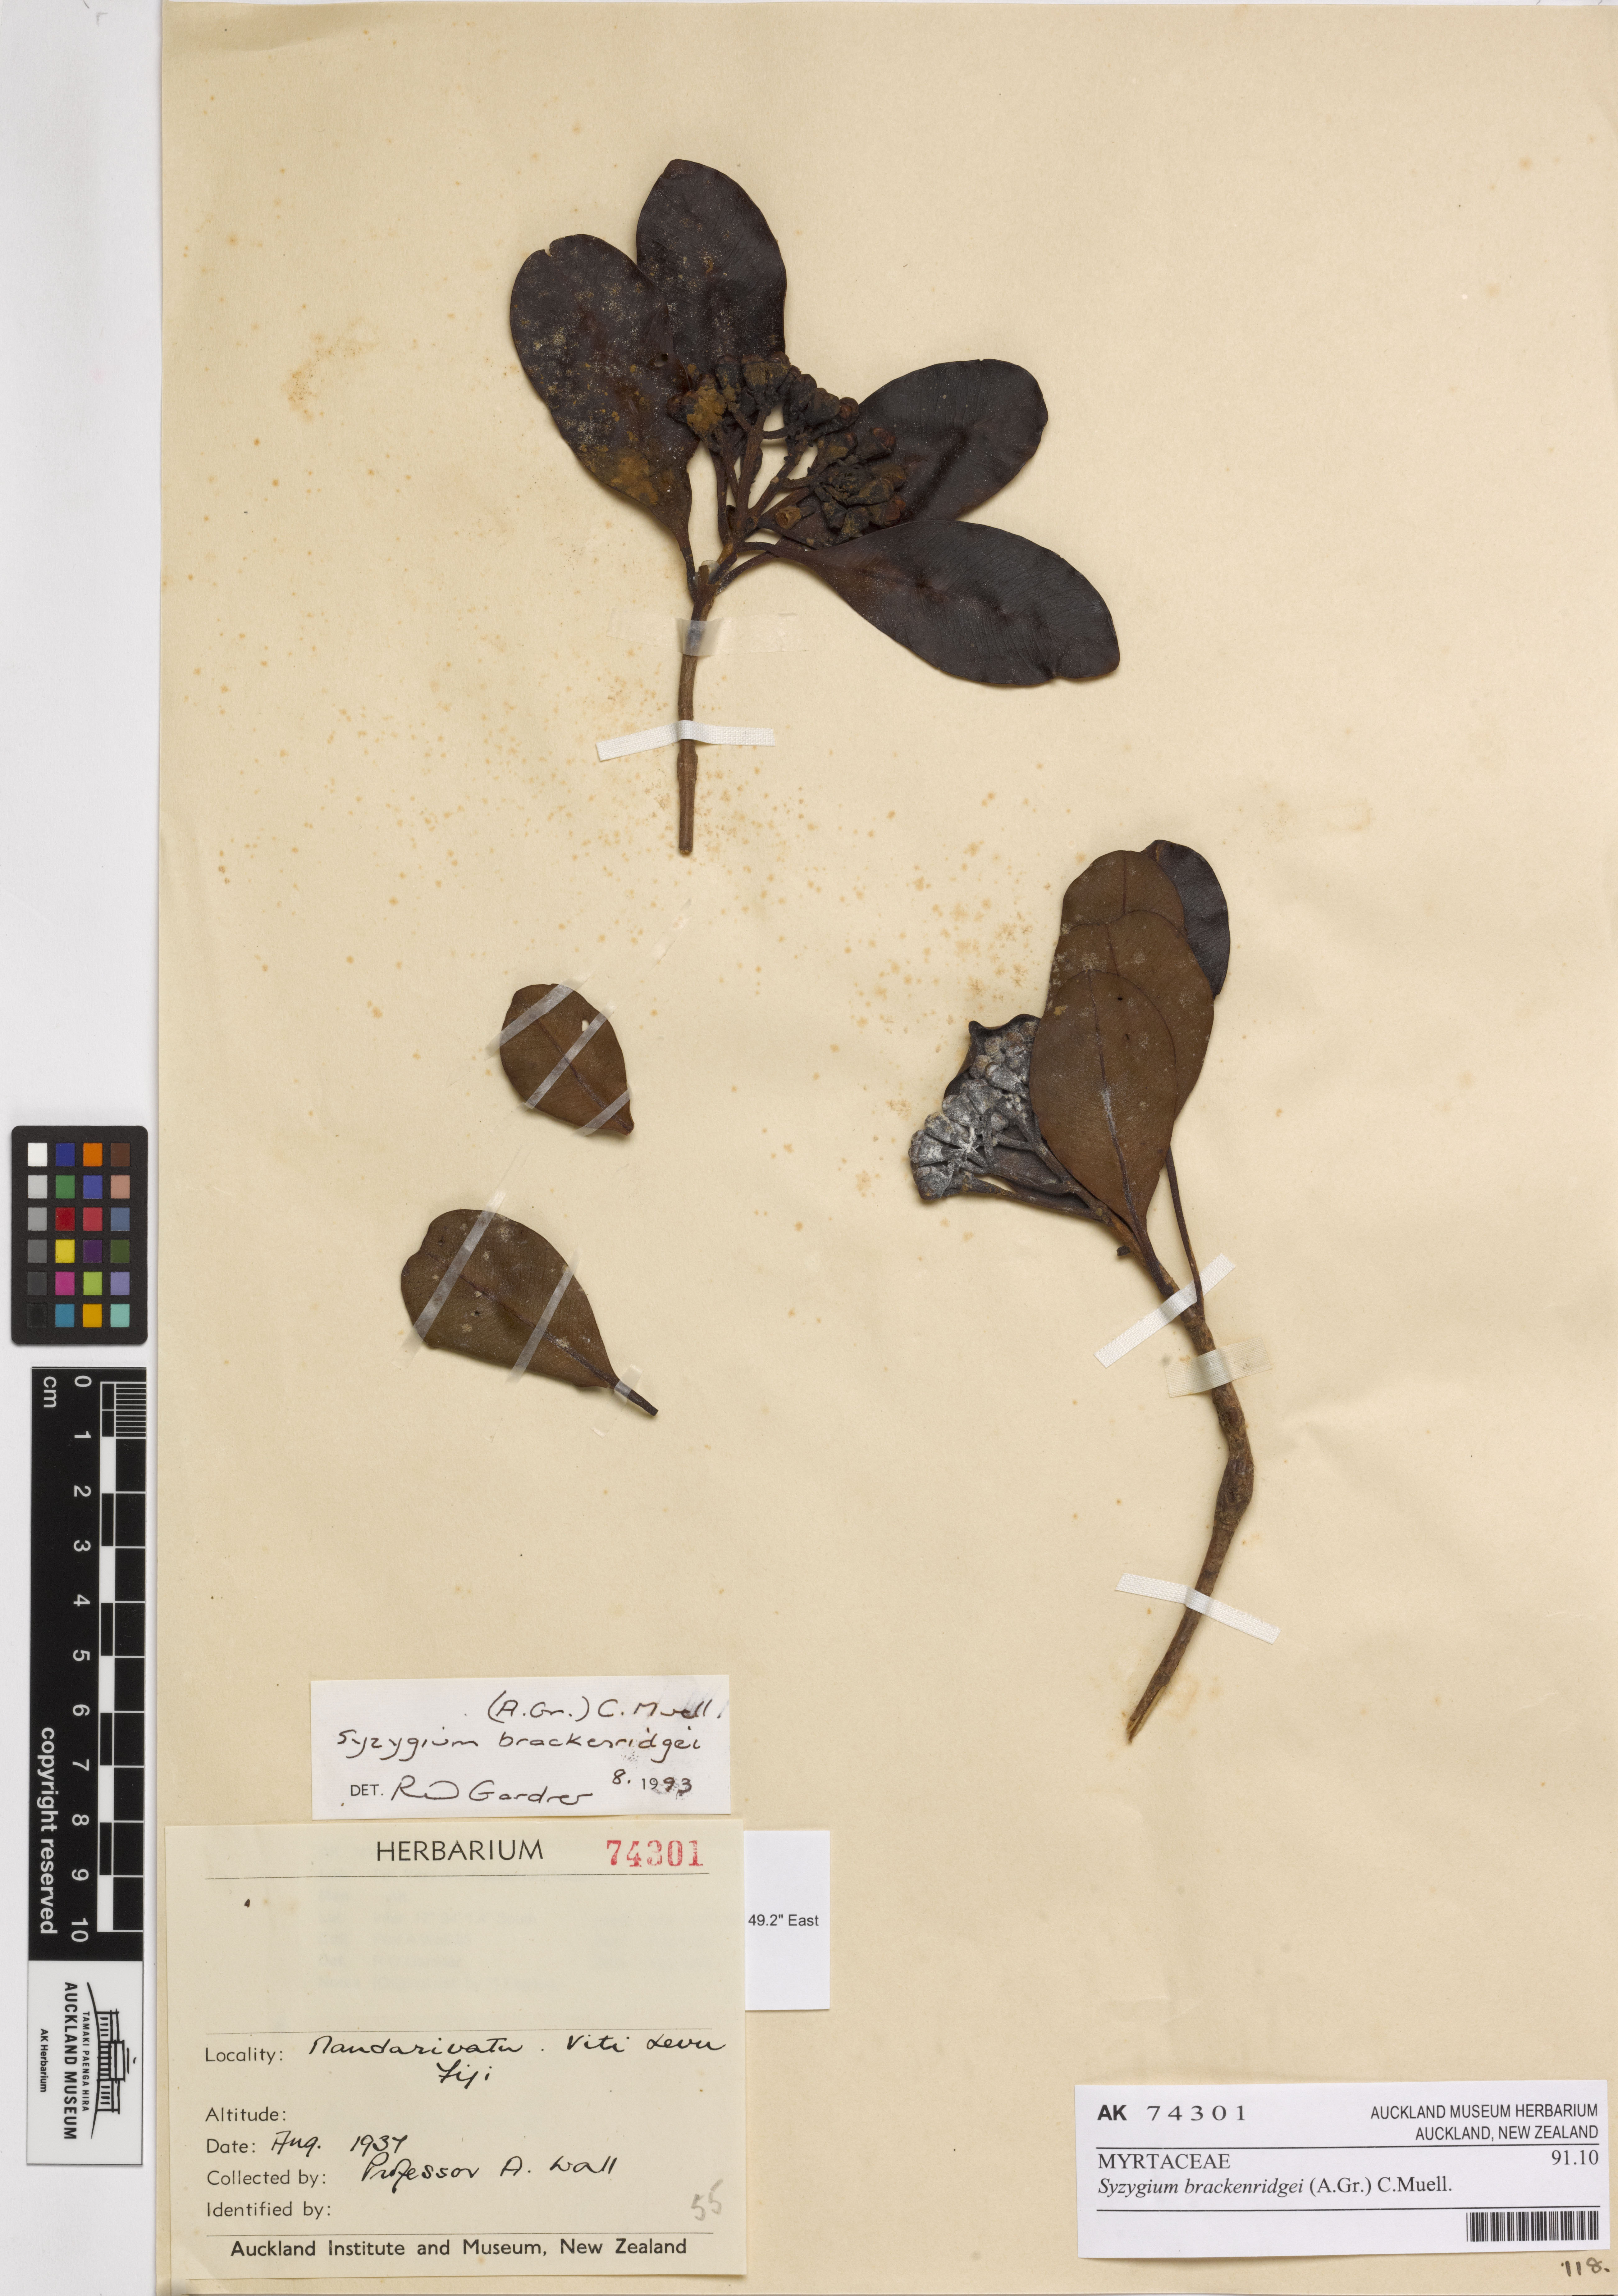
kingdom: Plantae
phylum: Tracheophyta
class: Magnoliopsida
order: Myrtales
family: Myrtaceae
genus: Syzygium
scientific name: Syzygium brackenridgei
